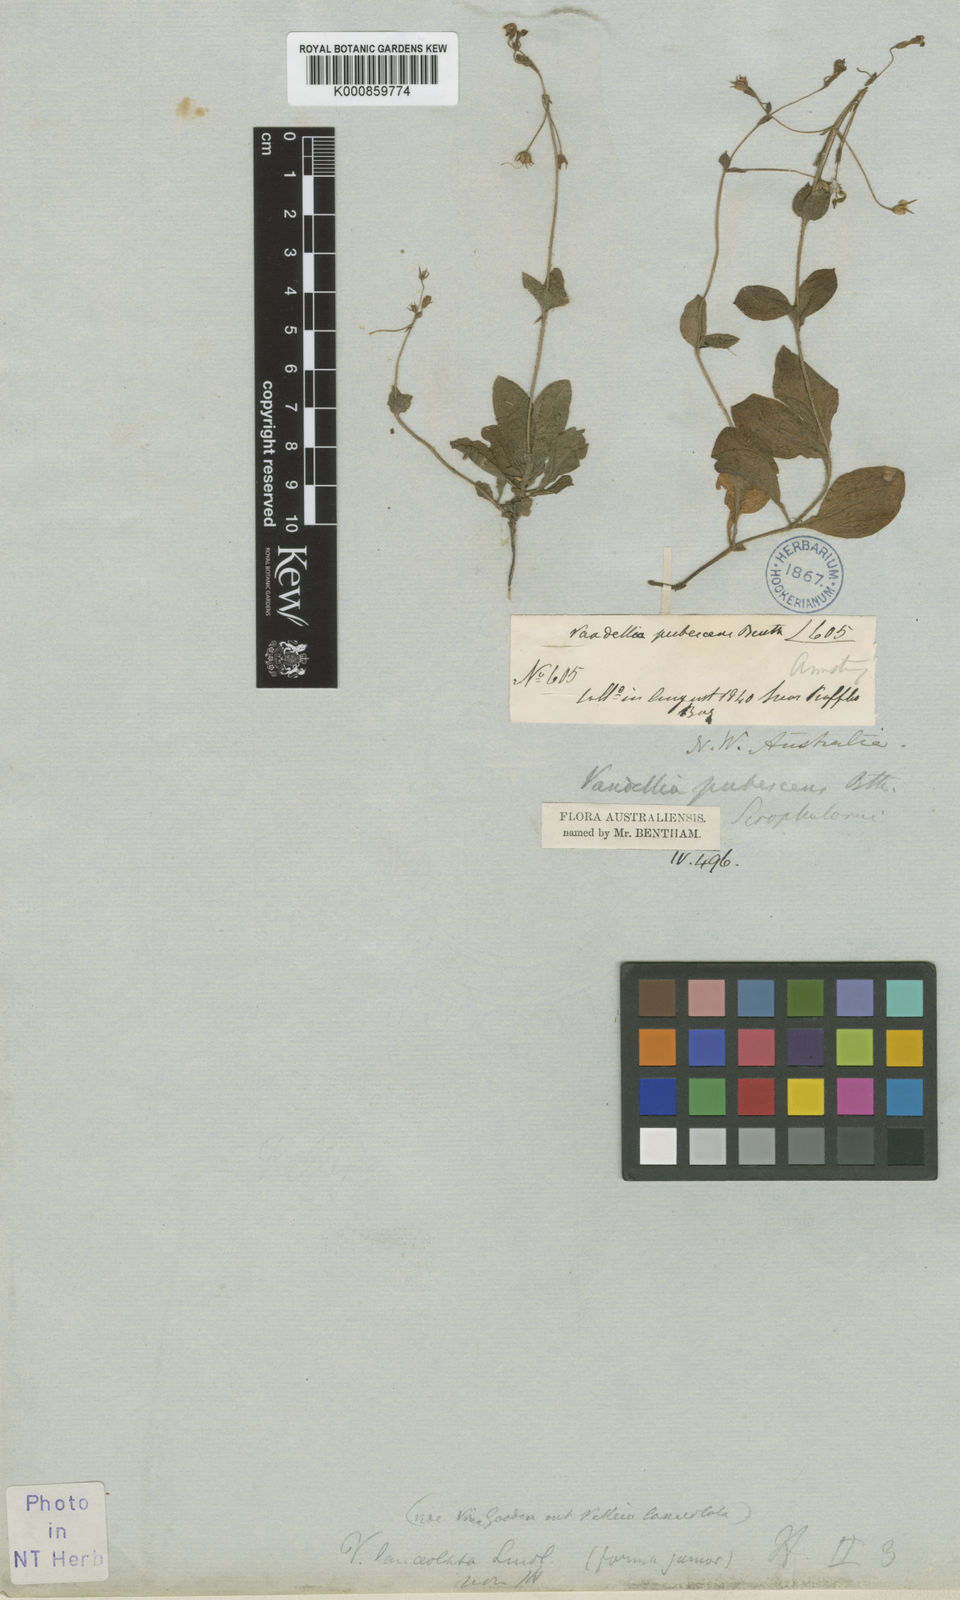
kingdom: Plantae
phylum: Tracheophyta
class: Magnoliopsida
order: Lamiales
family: Linderniaceae
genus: Lindernia
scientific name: Lindernia pubescens
